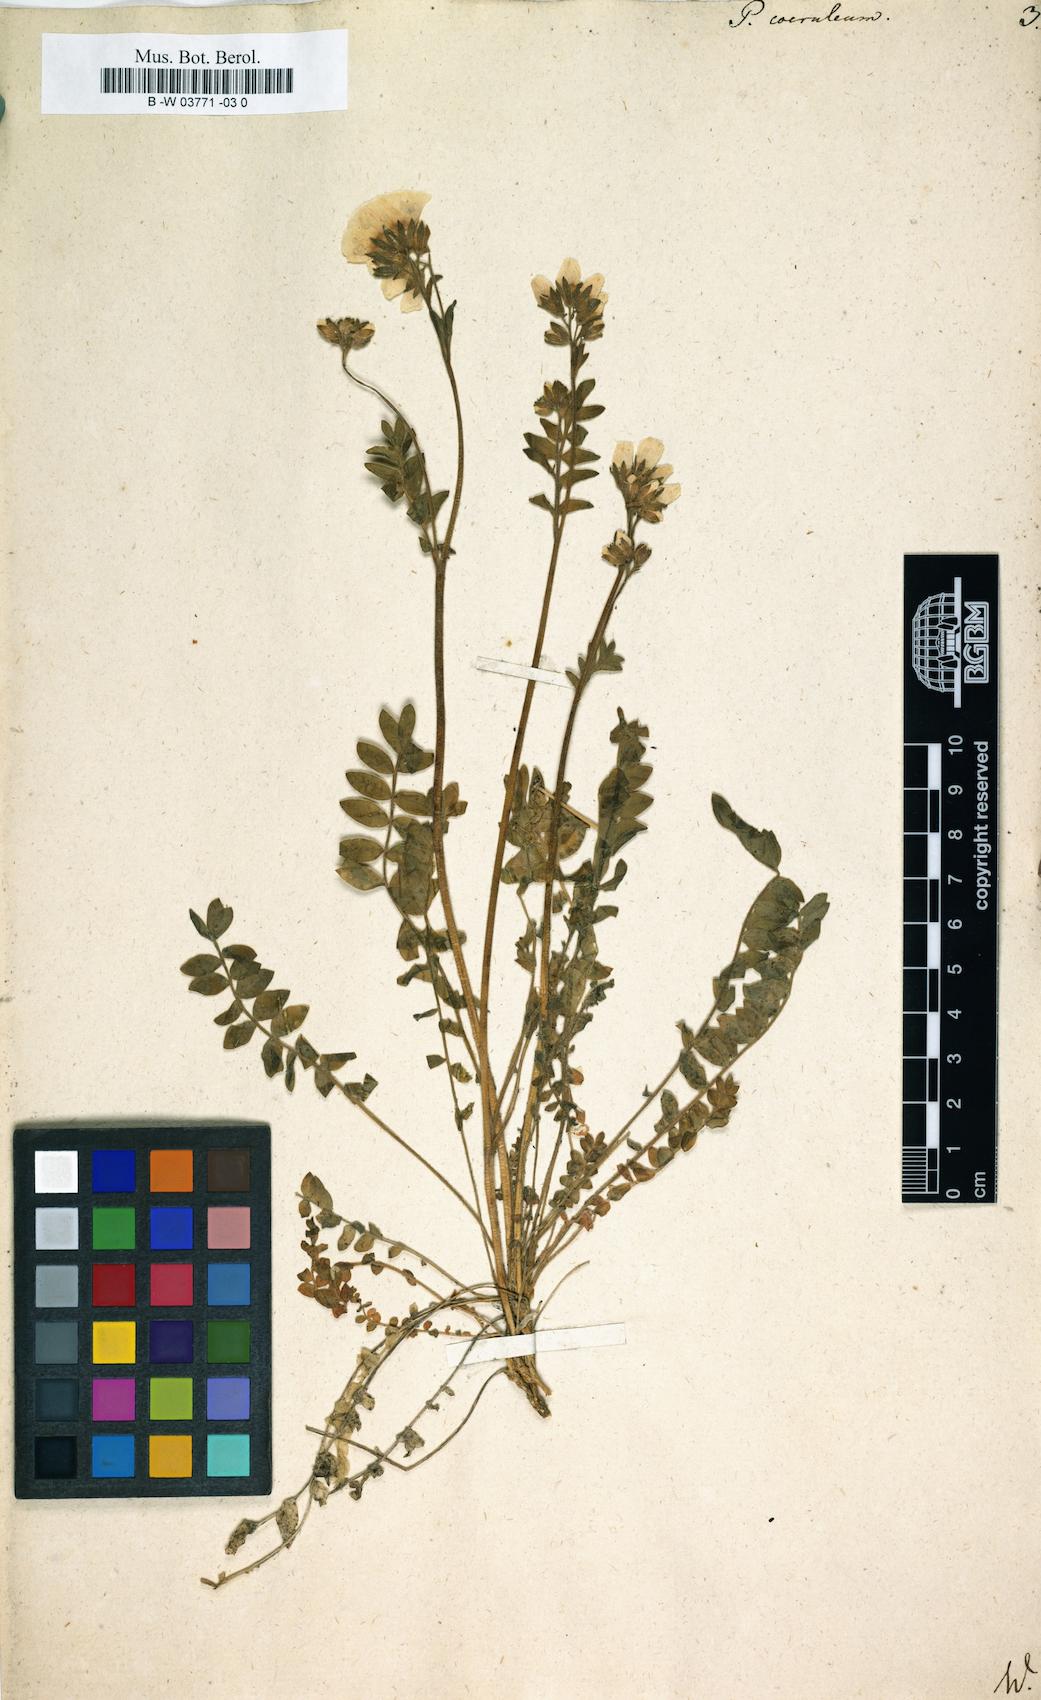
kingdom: Plantae
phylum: Tracheophyta
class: Magnoliopsida
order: Ericales
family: Polemoniaceae
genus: Polemonium
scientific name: Polemonium caeruleum
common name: Jacob's-ladder
